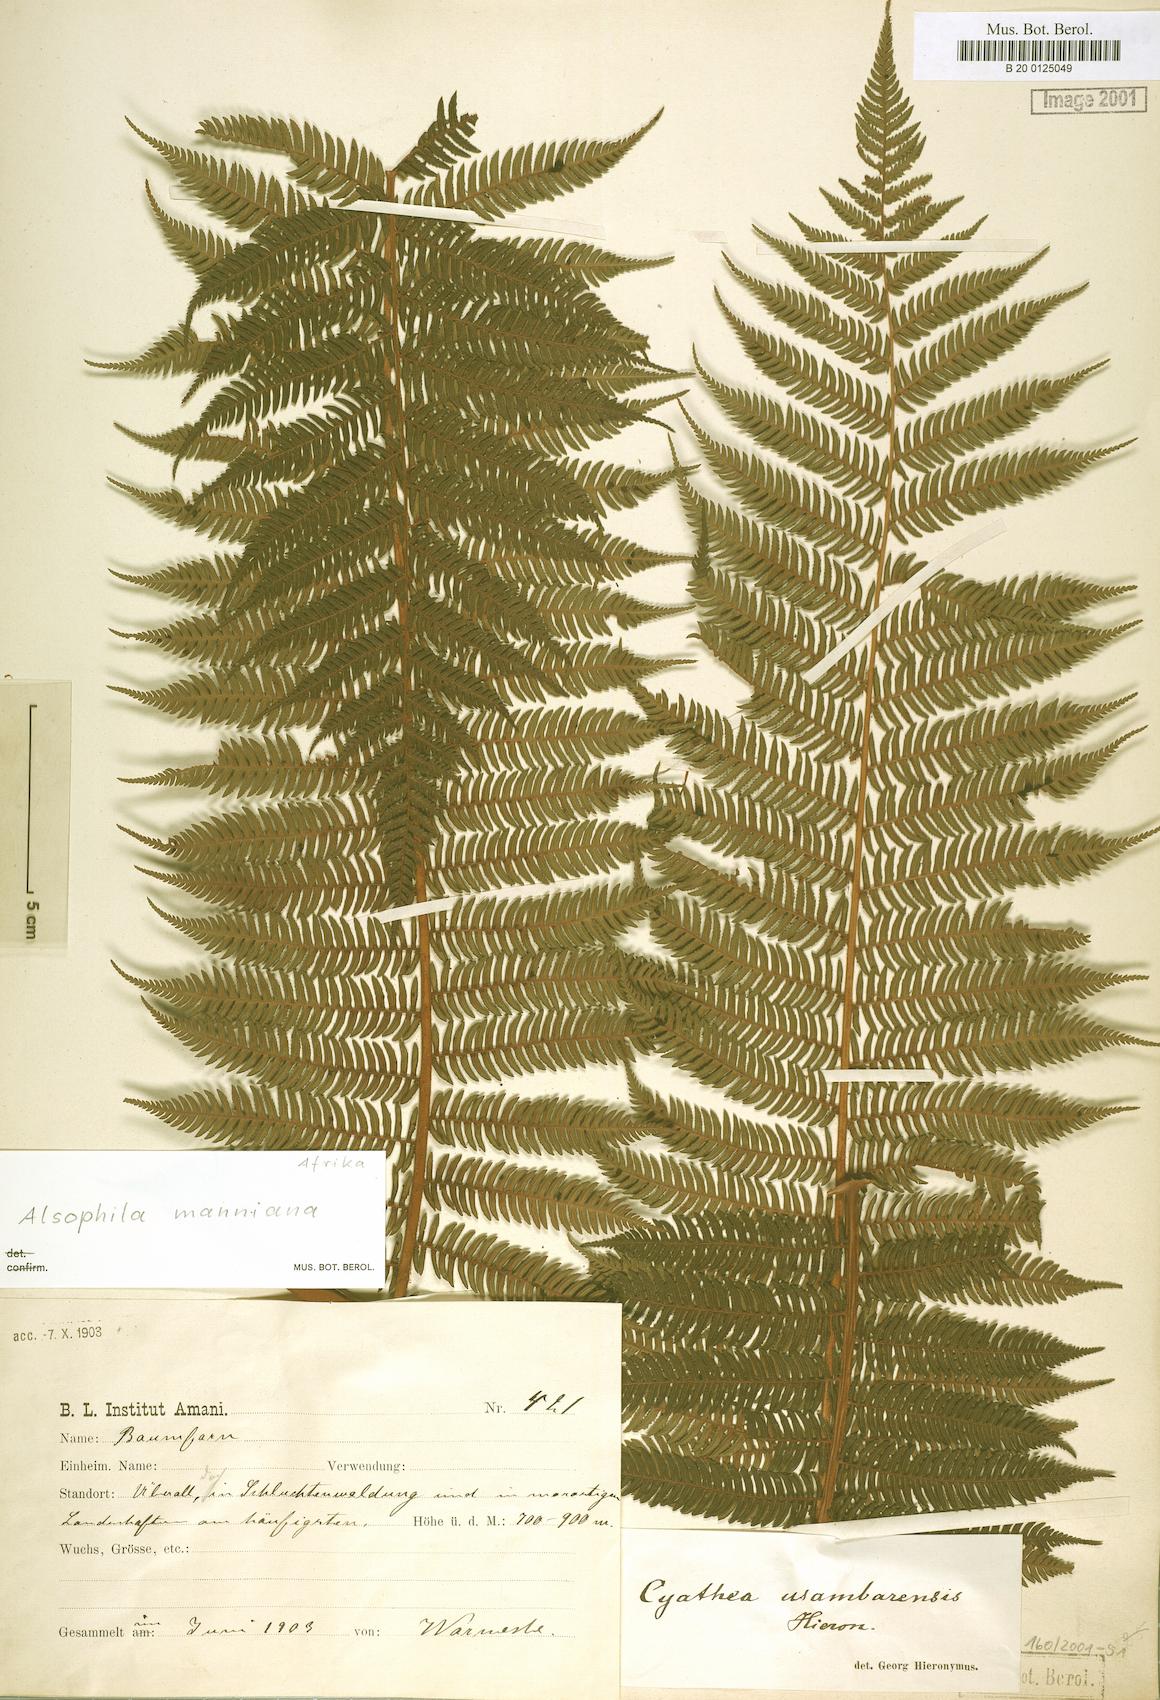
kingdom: Plantae
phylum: Tracheophyta
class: Polypodiopsida
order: Cyatheales
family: Cyatheaceae
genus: Alsophila
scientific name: Alsophila manniana
